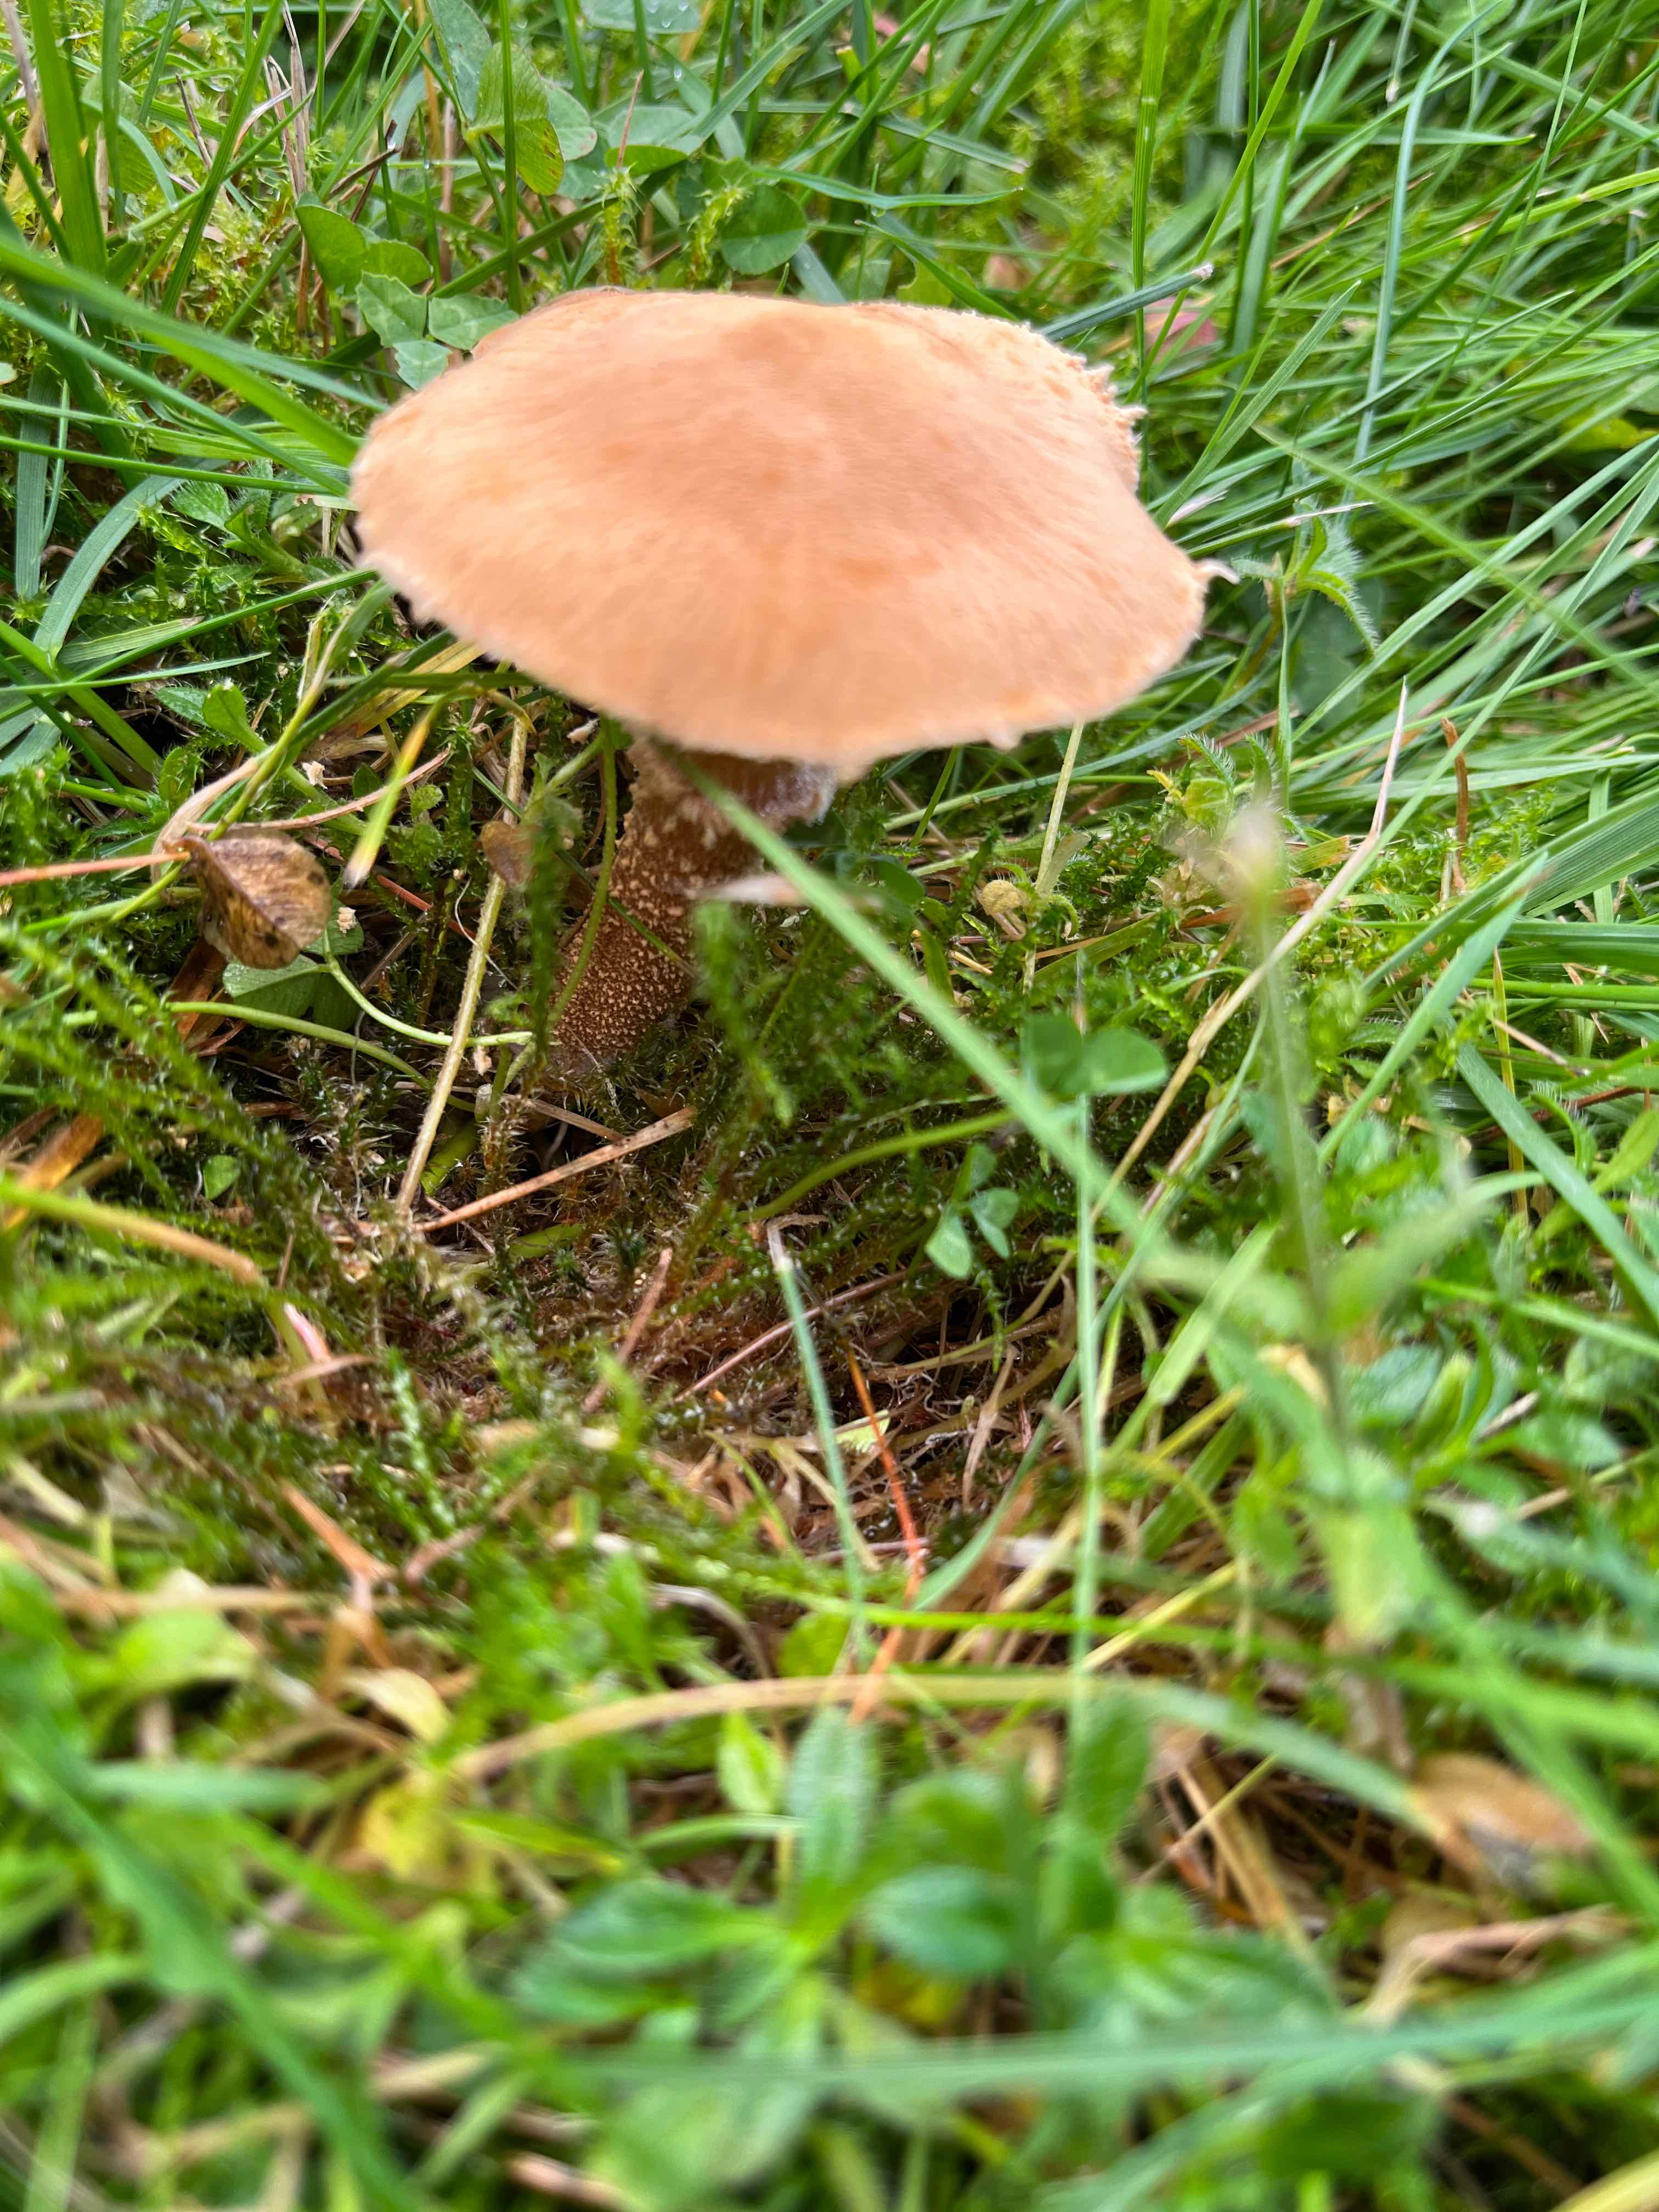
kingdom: Fungi
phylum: Basidiomycota
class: Agaricomycetes
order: Agaricales
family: Tricholomataceae
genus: Cystoderma
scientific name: Cystoderma
